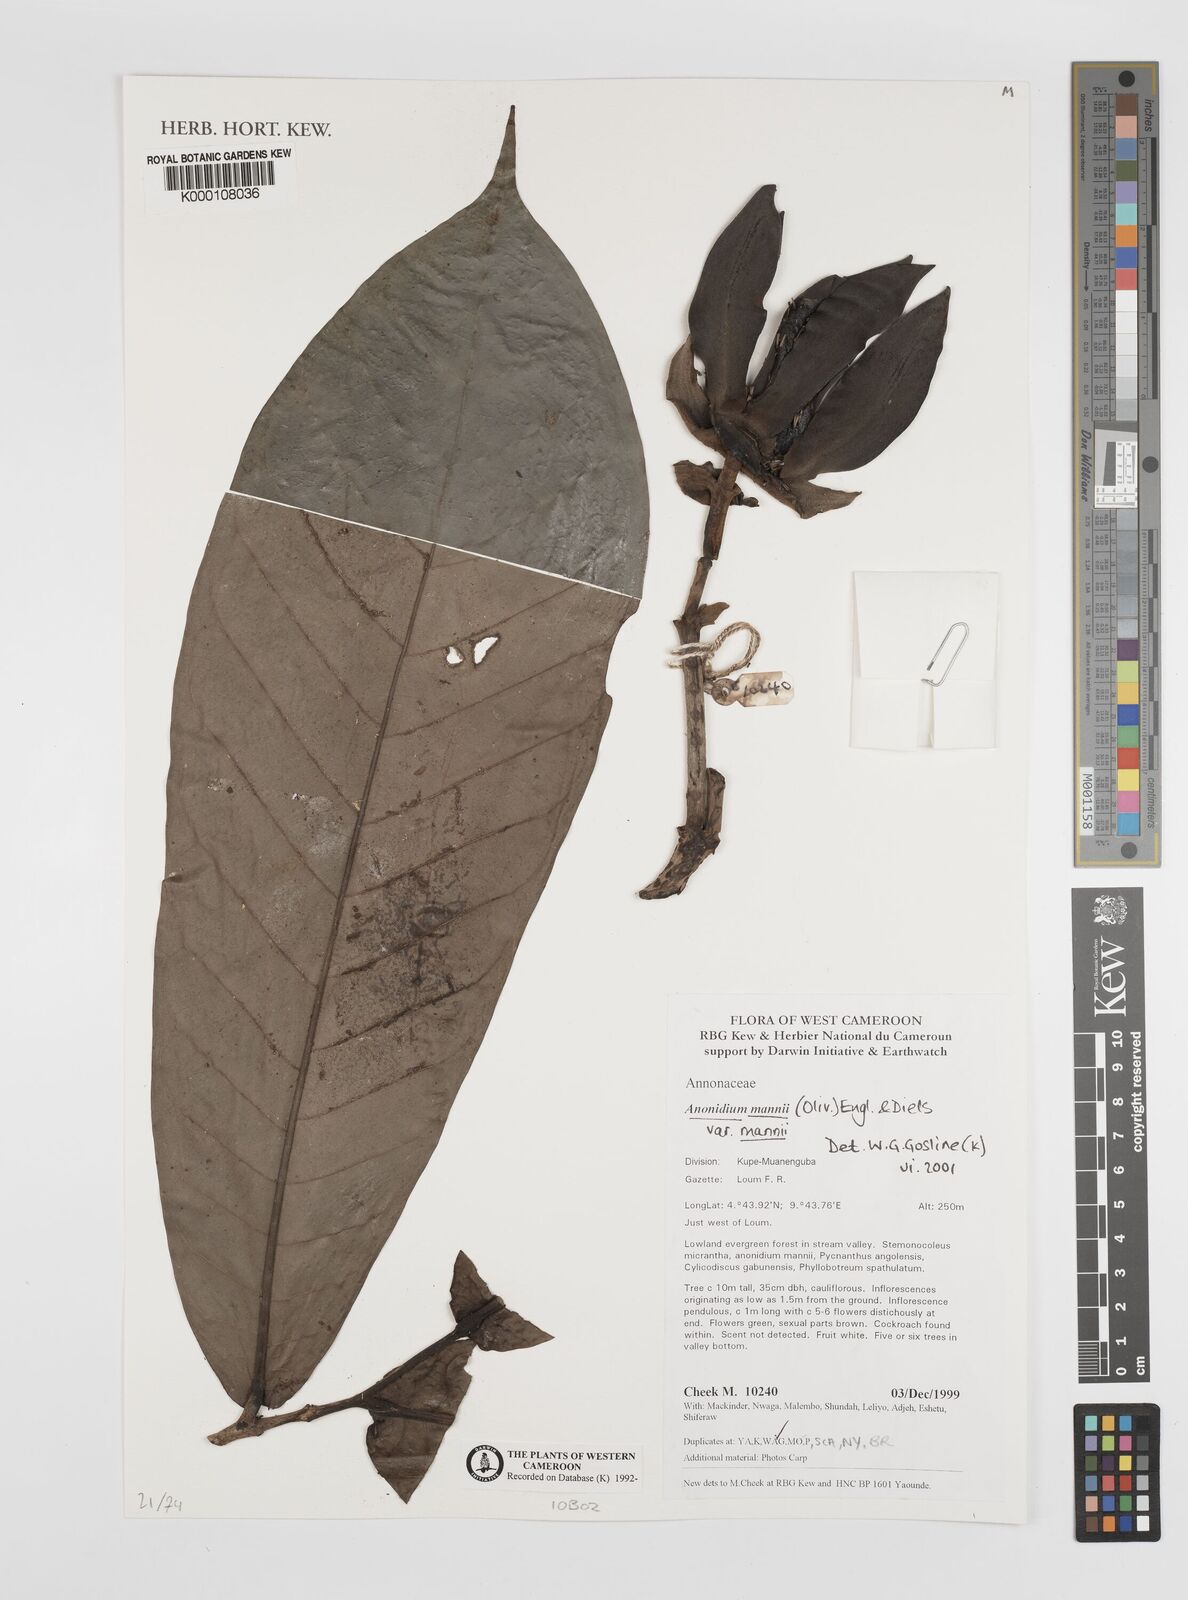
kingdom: Plantae
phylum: Tracheophyta
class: Magnoliopsida
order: Magnoliales
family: Annonaceae
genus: Anonidium
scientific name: Anonidium mannii
